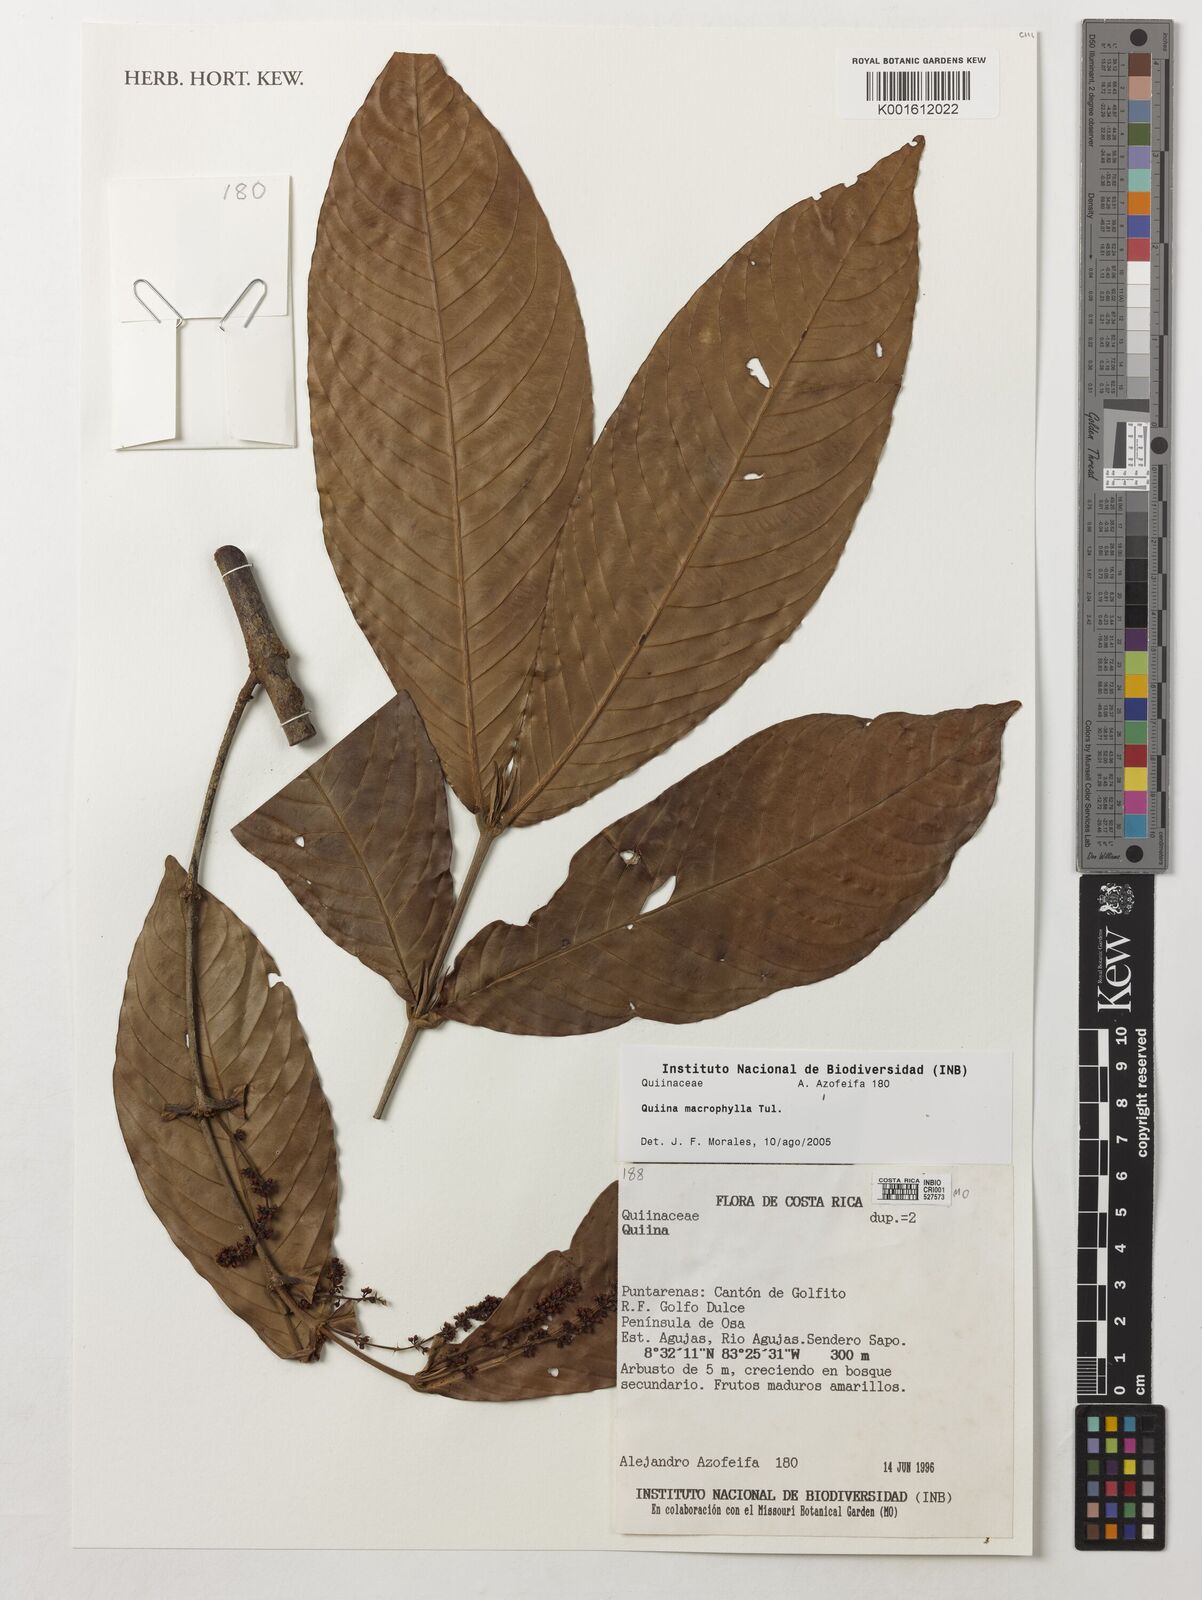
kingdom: Plantae
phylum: Tracheophyta
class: Magnoliopsida
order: Malpighiales
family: Quiinaceae
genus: Quiina
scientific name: Quiina macrophylla
